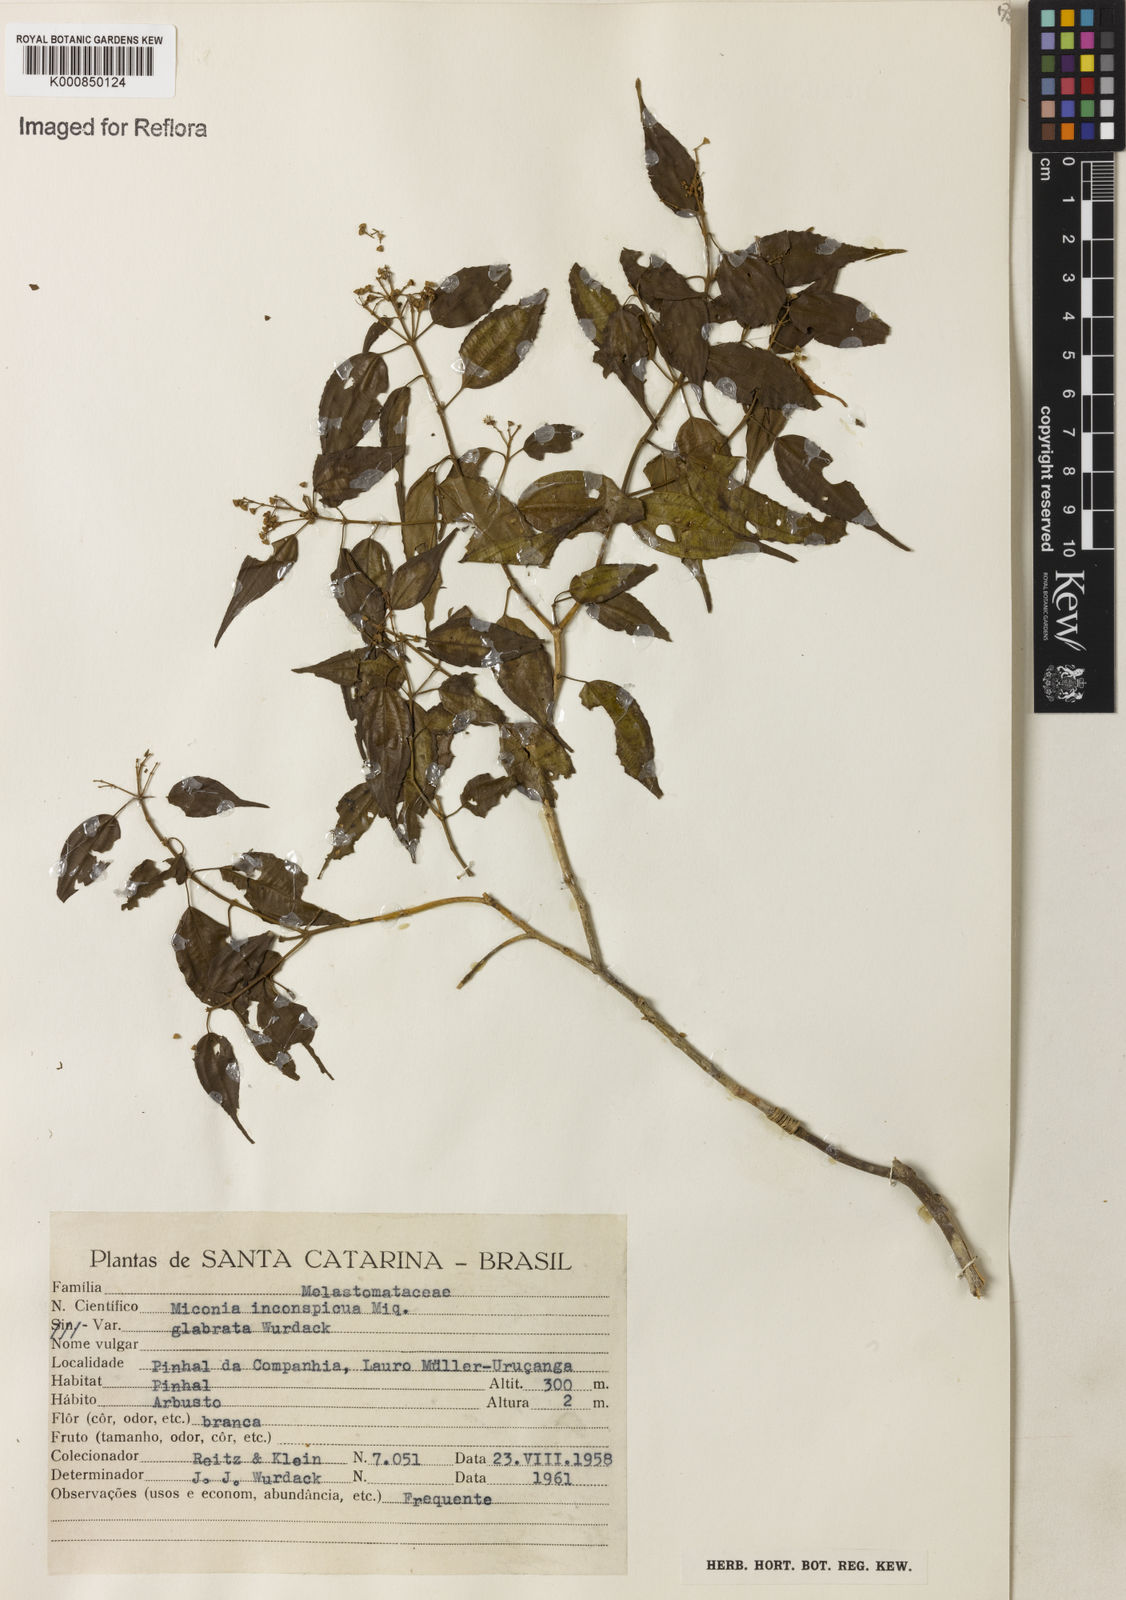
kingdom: Plantae
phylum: Tracheophyta
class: Magnoliopsida
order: Myrtales
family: Melastomataceae
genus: Miconia
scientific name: Miconia inconspicua
